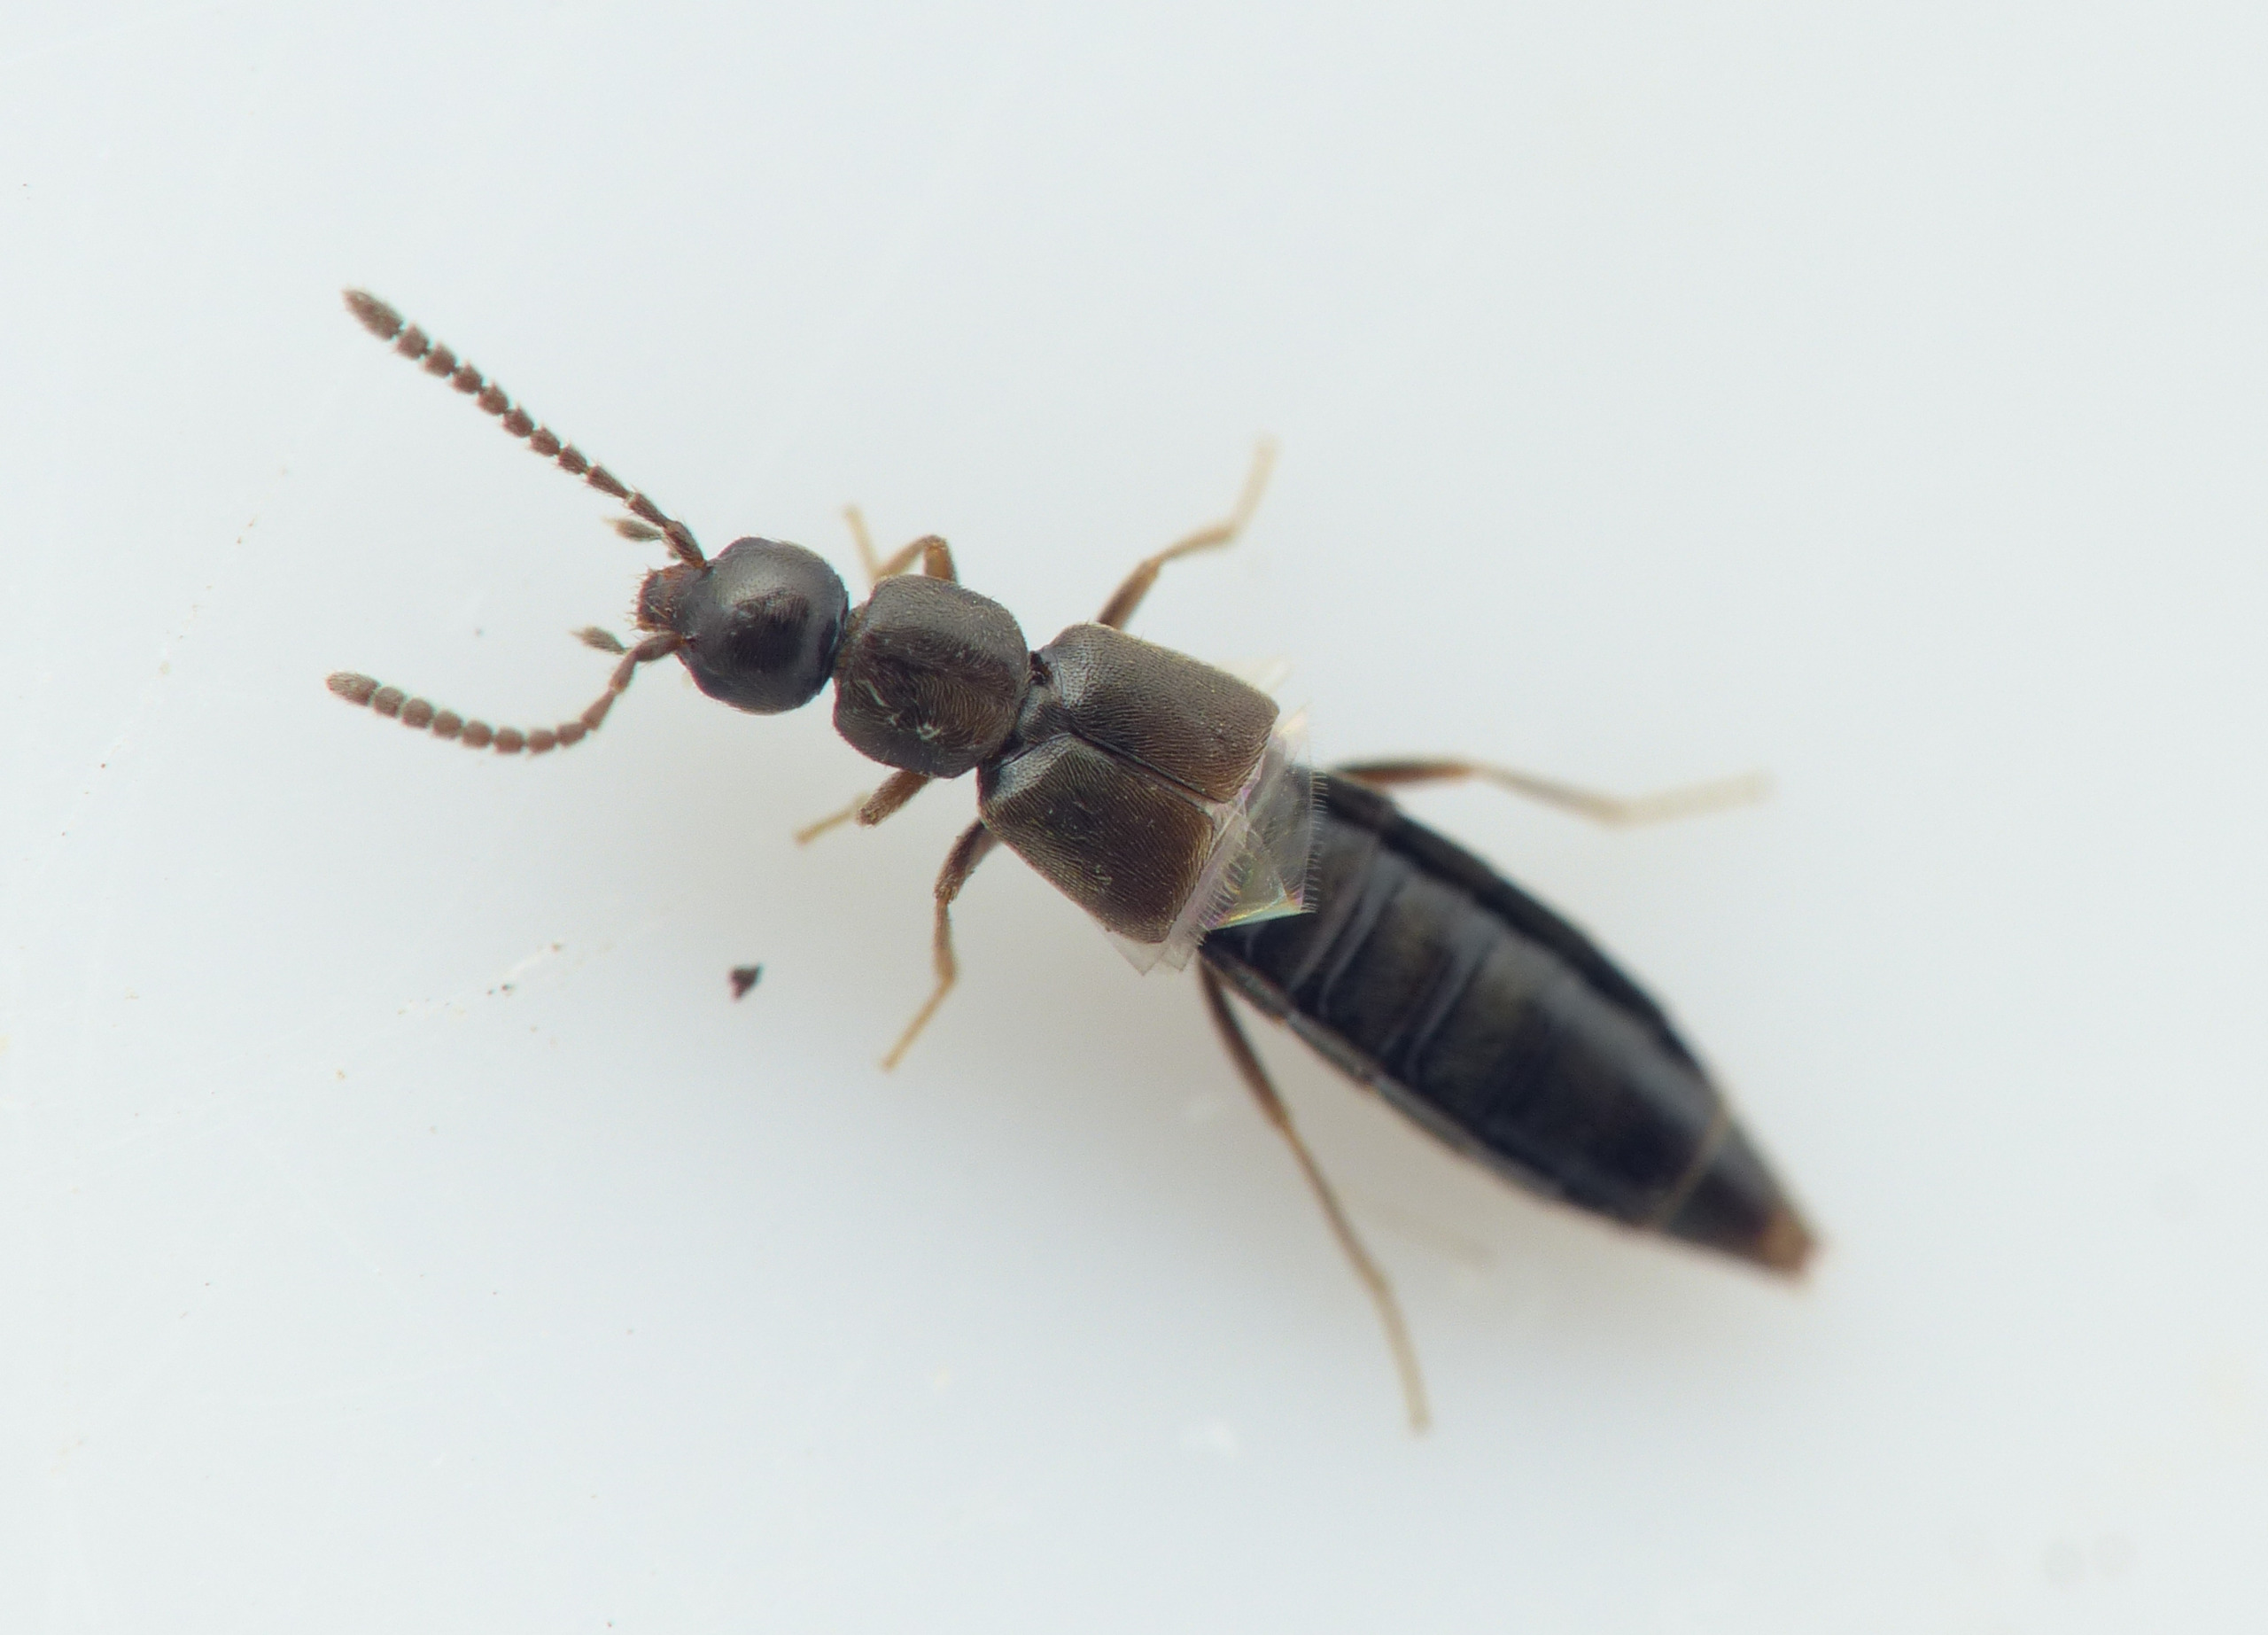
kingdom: Animalia
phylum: Arthropoda
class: Insecta
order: Coleoptera
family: Staphylinidae
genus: Aloconota
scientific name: Aloconota gregaria
